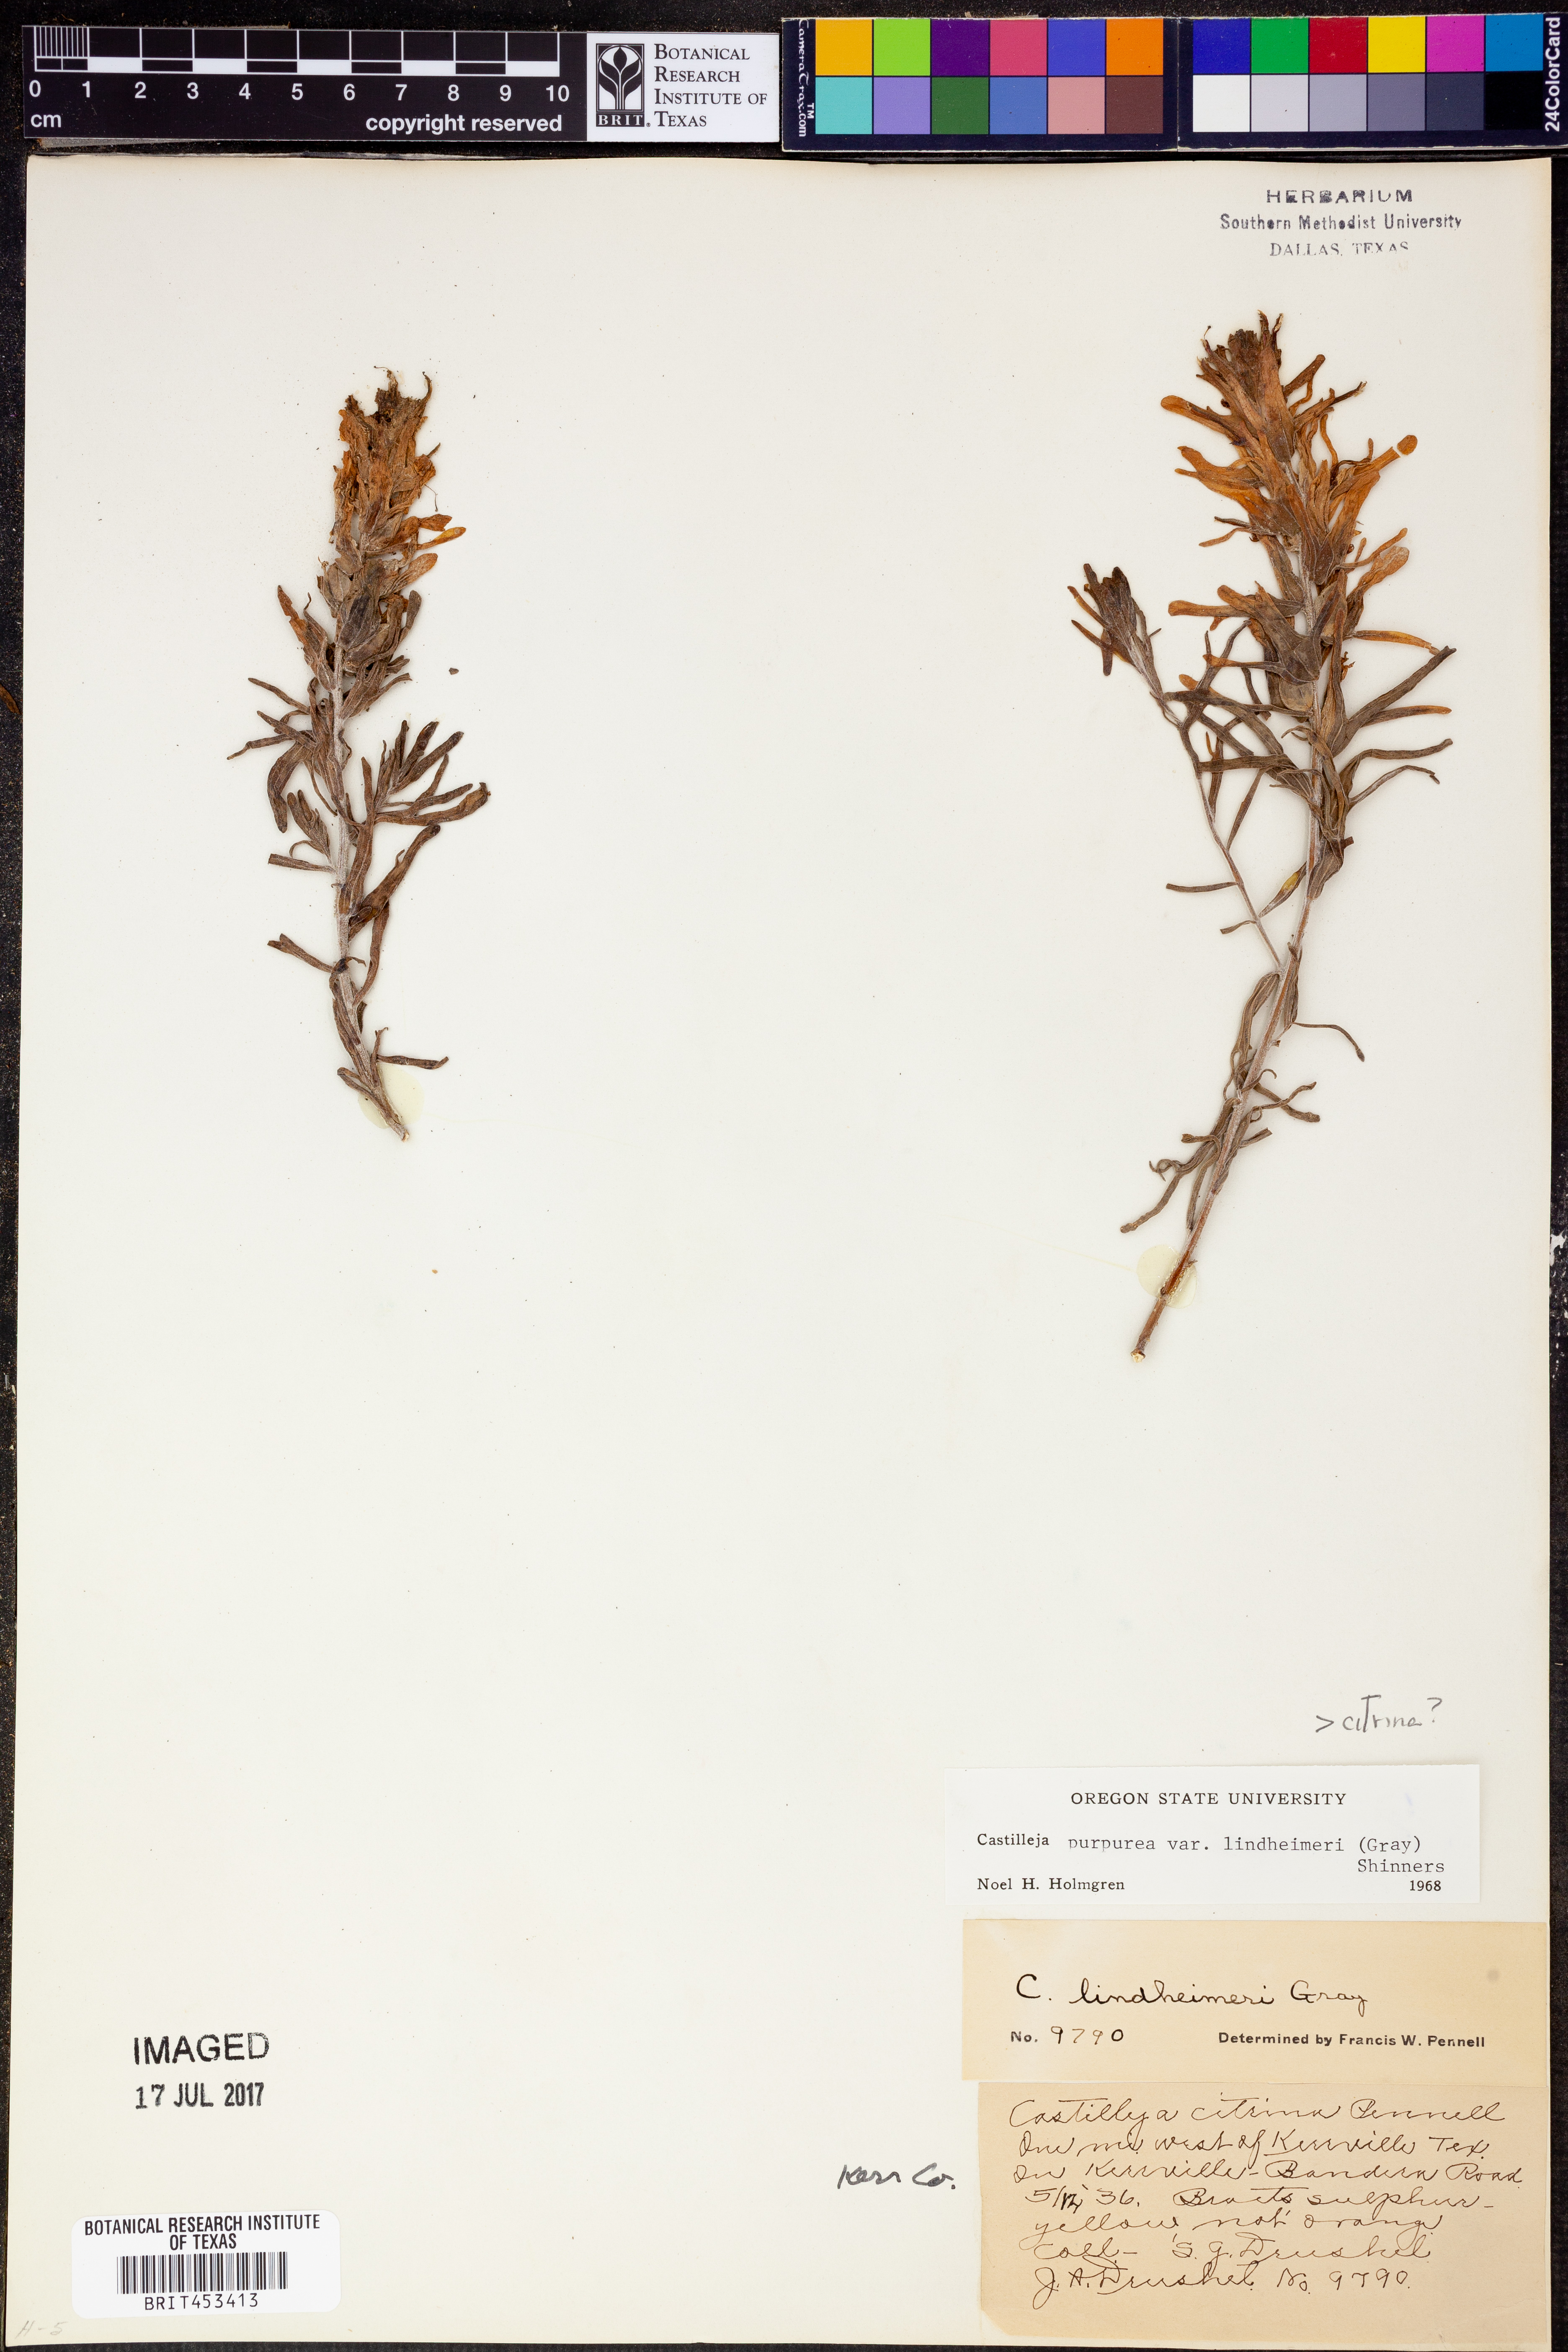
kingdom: Plantae
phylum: Tracheophyta
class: Magnoliopsida
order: Lamiales
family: Orobanchaceae
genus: Castilleja
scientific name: Castilleja purpurea
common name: Plains paintbrush
